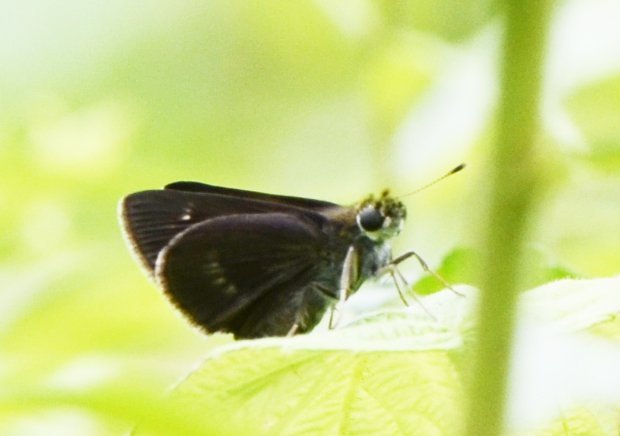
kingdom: Animalia
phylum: Arthropoda
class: Insecta
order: Lepidoptera
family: Hesperiidae
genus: Euphyes
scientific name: Euphyes vestris
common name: Dun Skipper
